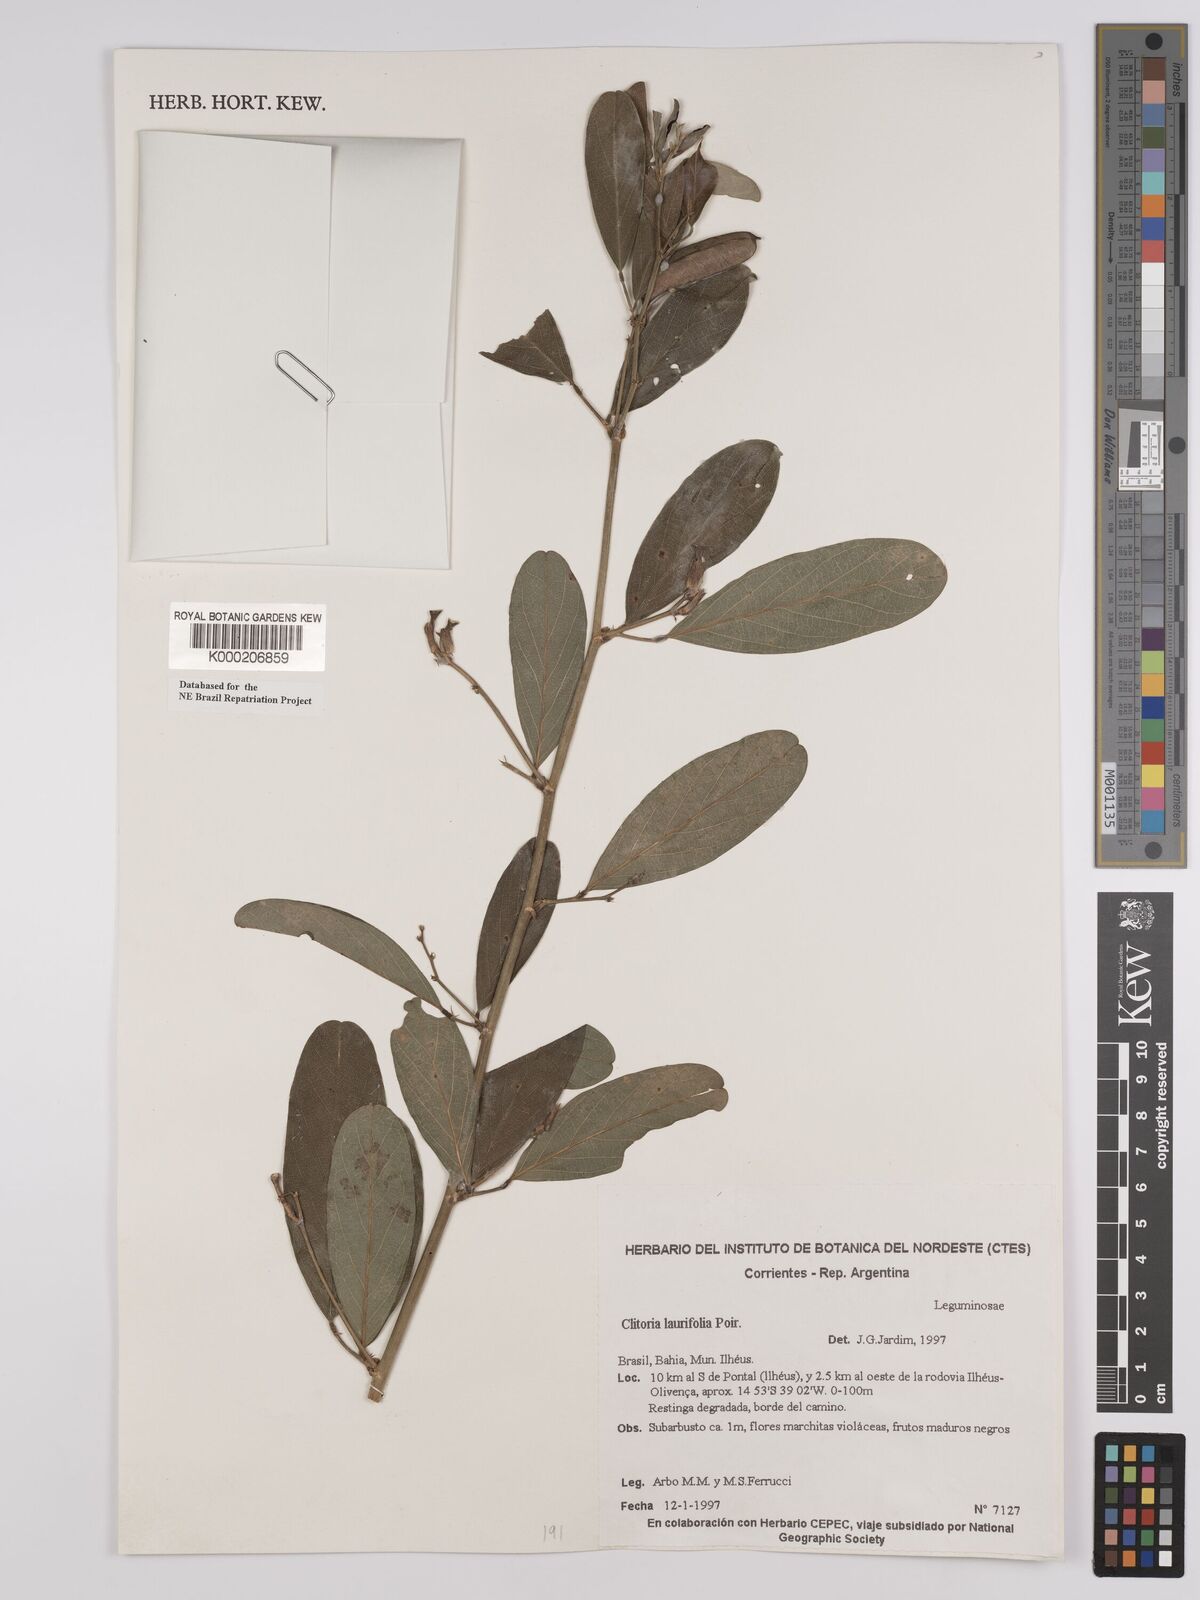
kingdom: Plantae
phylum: Tracheophyta
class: Magnoliopsida
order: Fabales
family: Fabaceae
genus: Clitoria
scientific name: Clitoria laurifolia
